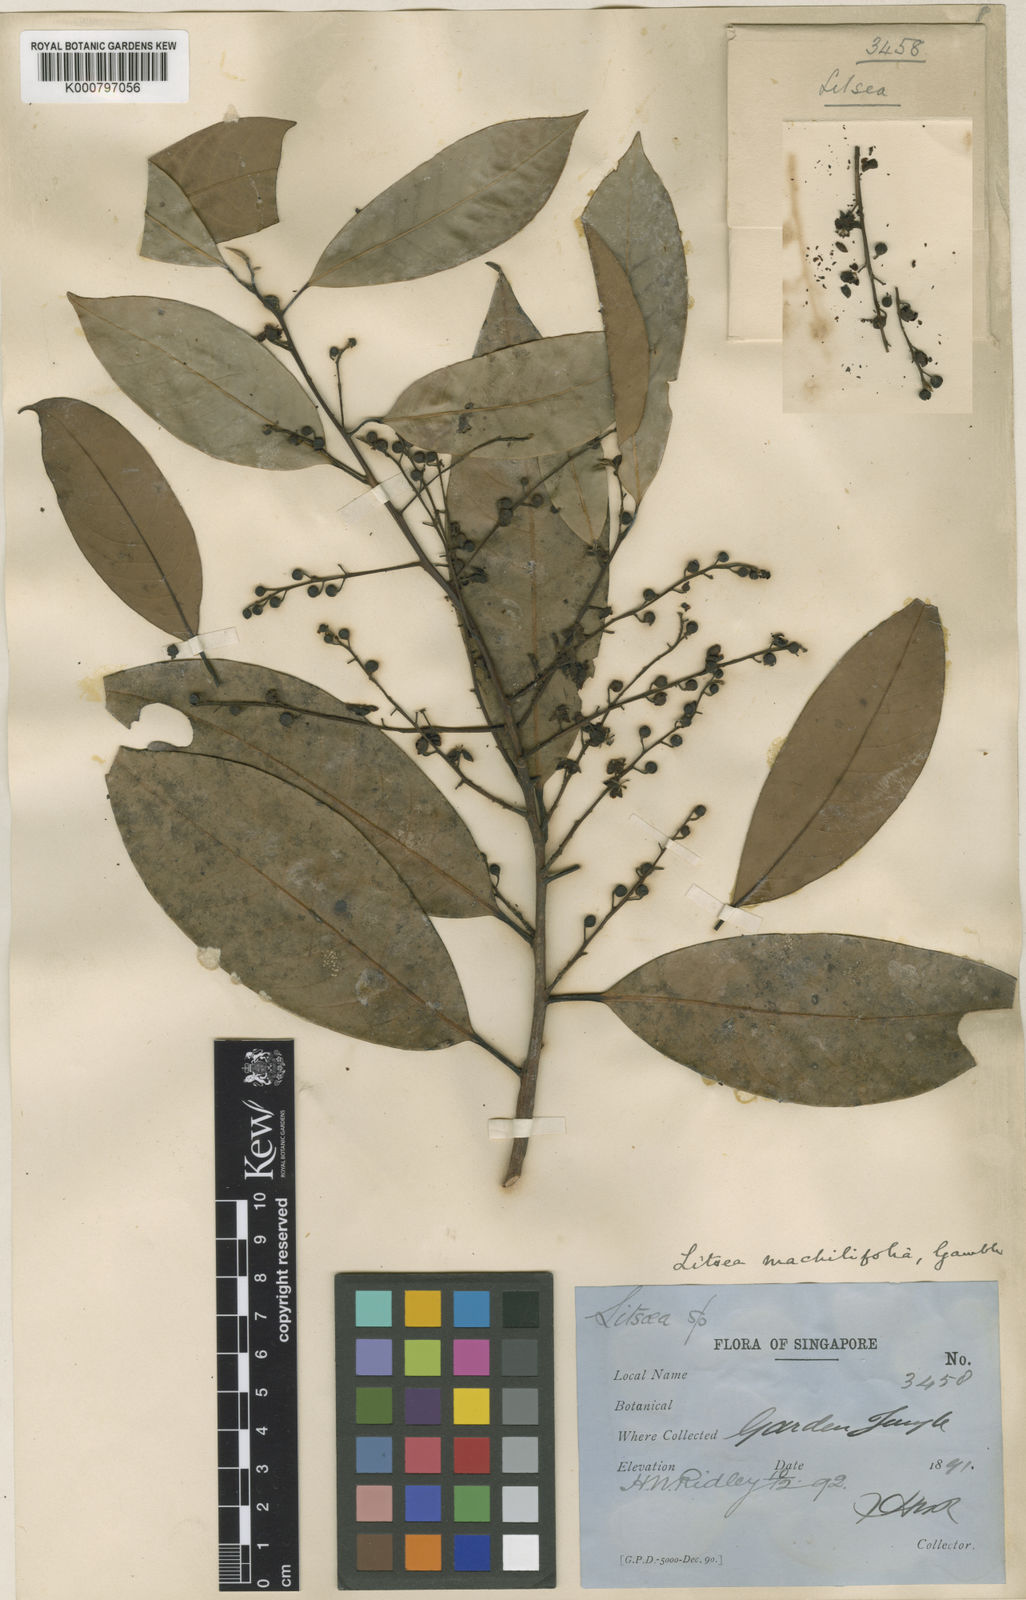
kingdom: Plantae
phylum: Tracheophyta
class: Magnoliopsida
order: Laurales
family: Lauraceae
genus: Litsea
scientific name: Litsea machilifolia
